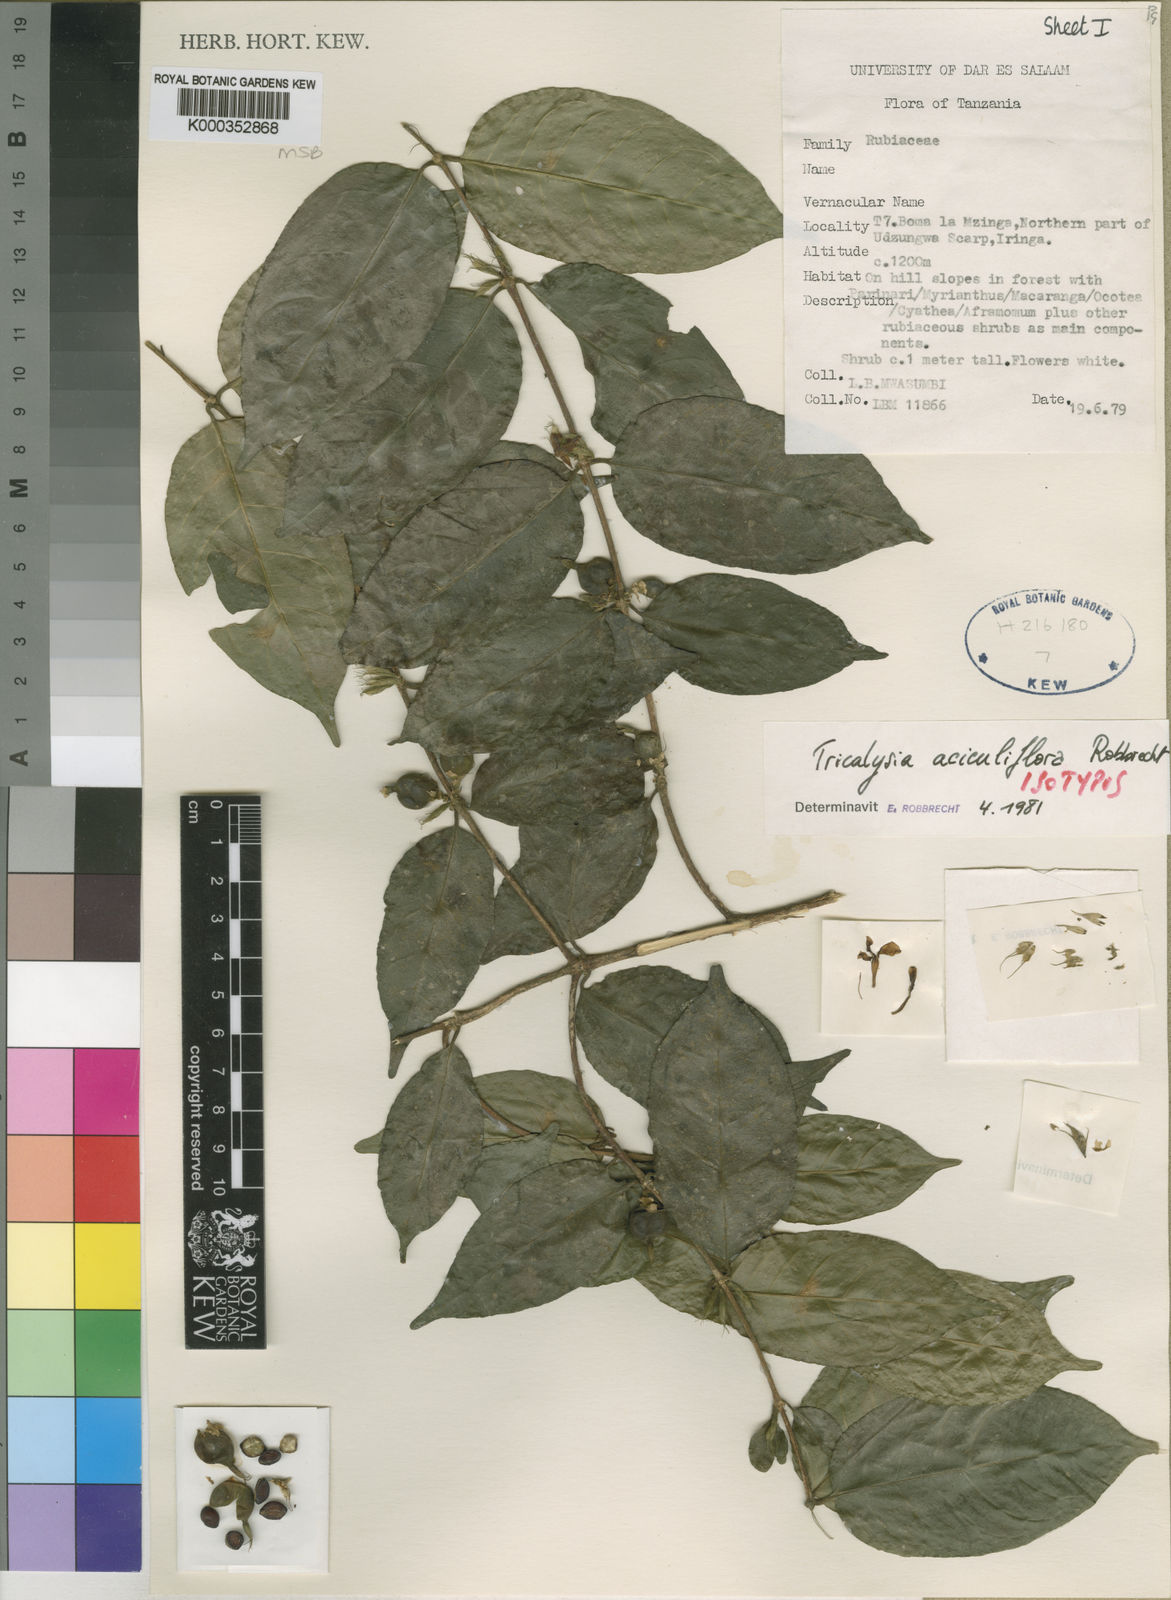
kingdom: Plantae
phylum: Tracheophyta
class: Magnoliopsida
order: Gentianales
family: Rubiaceae
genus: Tricalysia
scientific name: Tricalysia aciculiflora
